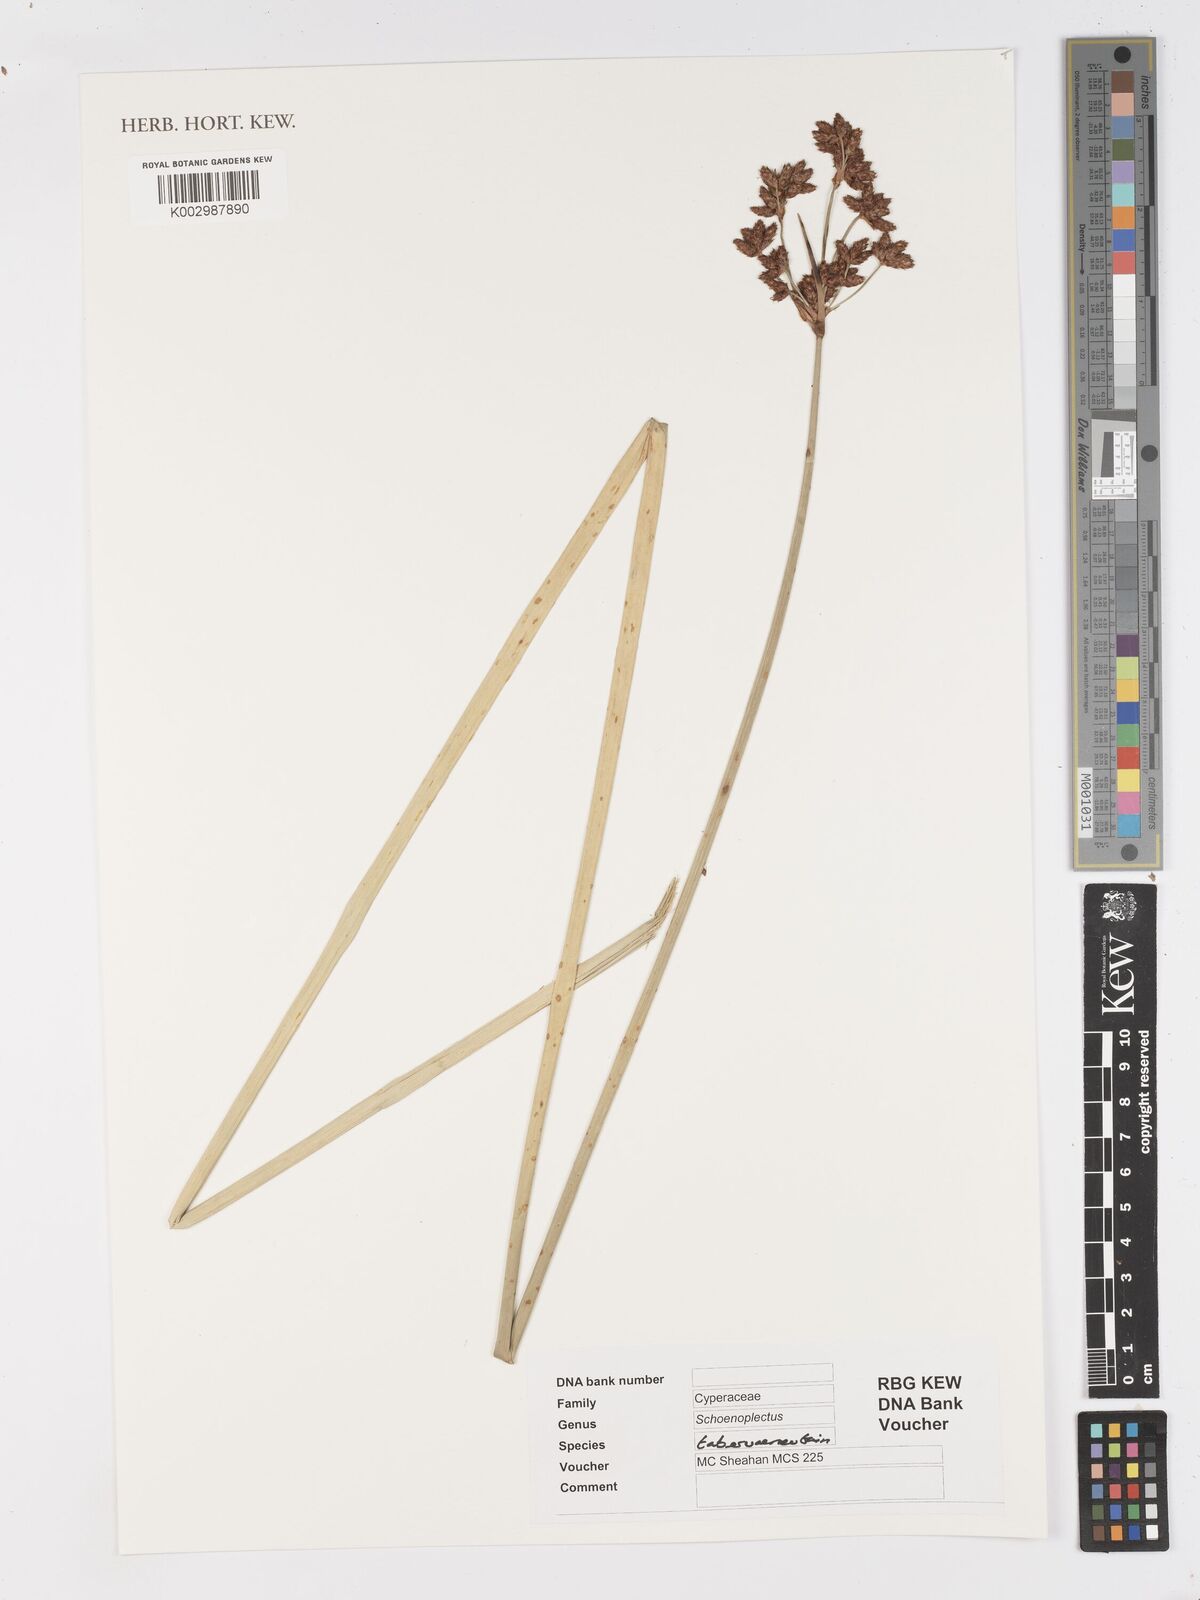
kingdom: Plantae
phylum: Tracheophyta
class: Liliopsida
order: Poales
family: Cyperaceae
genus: Schoenoplectus
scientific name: Schoenoplectus kuekenthalianus
